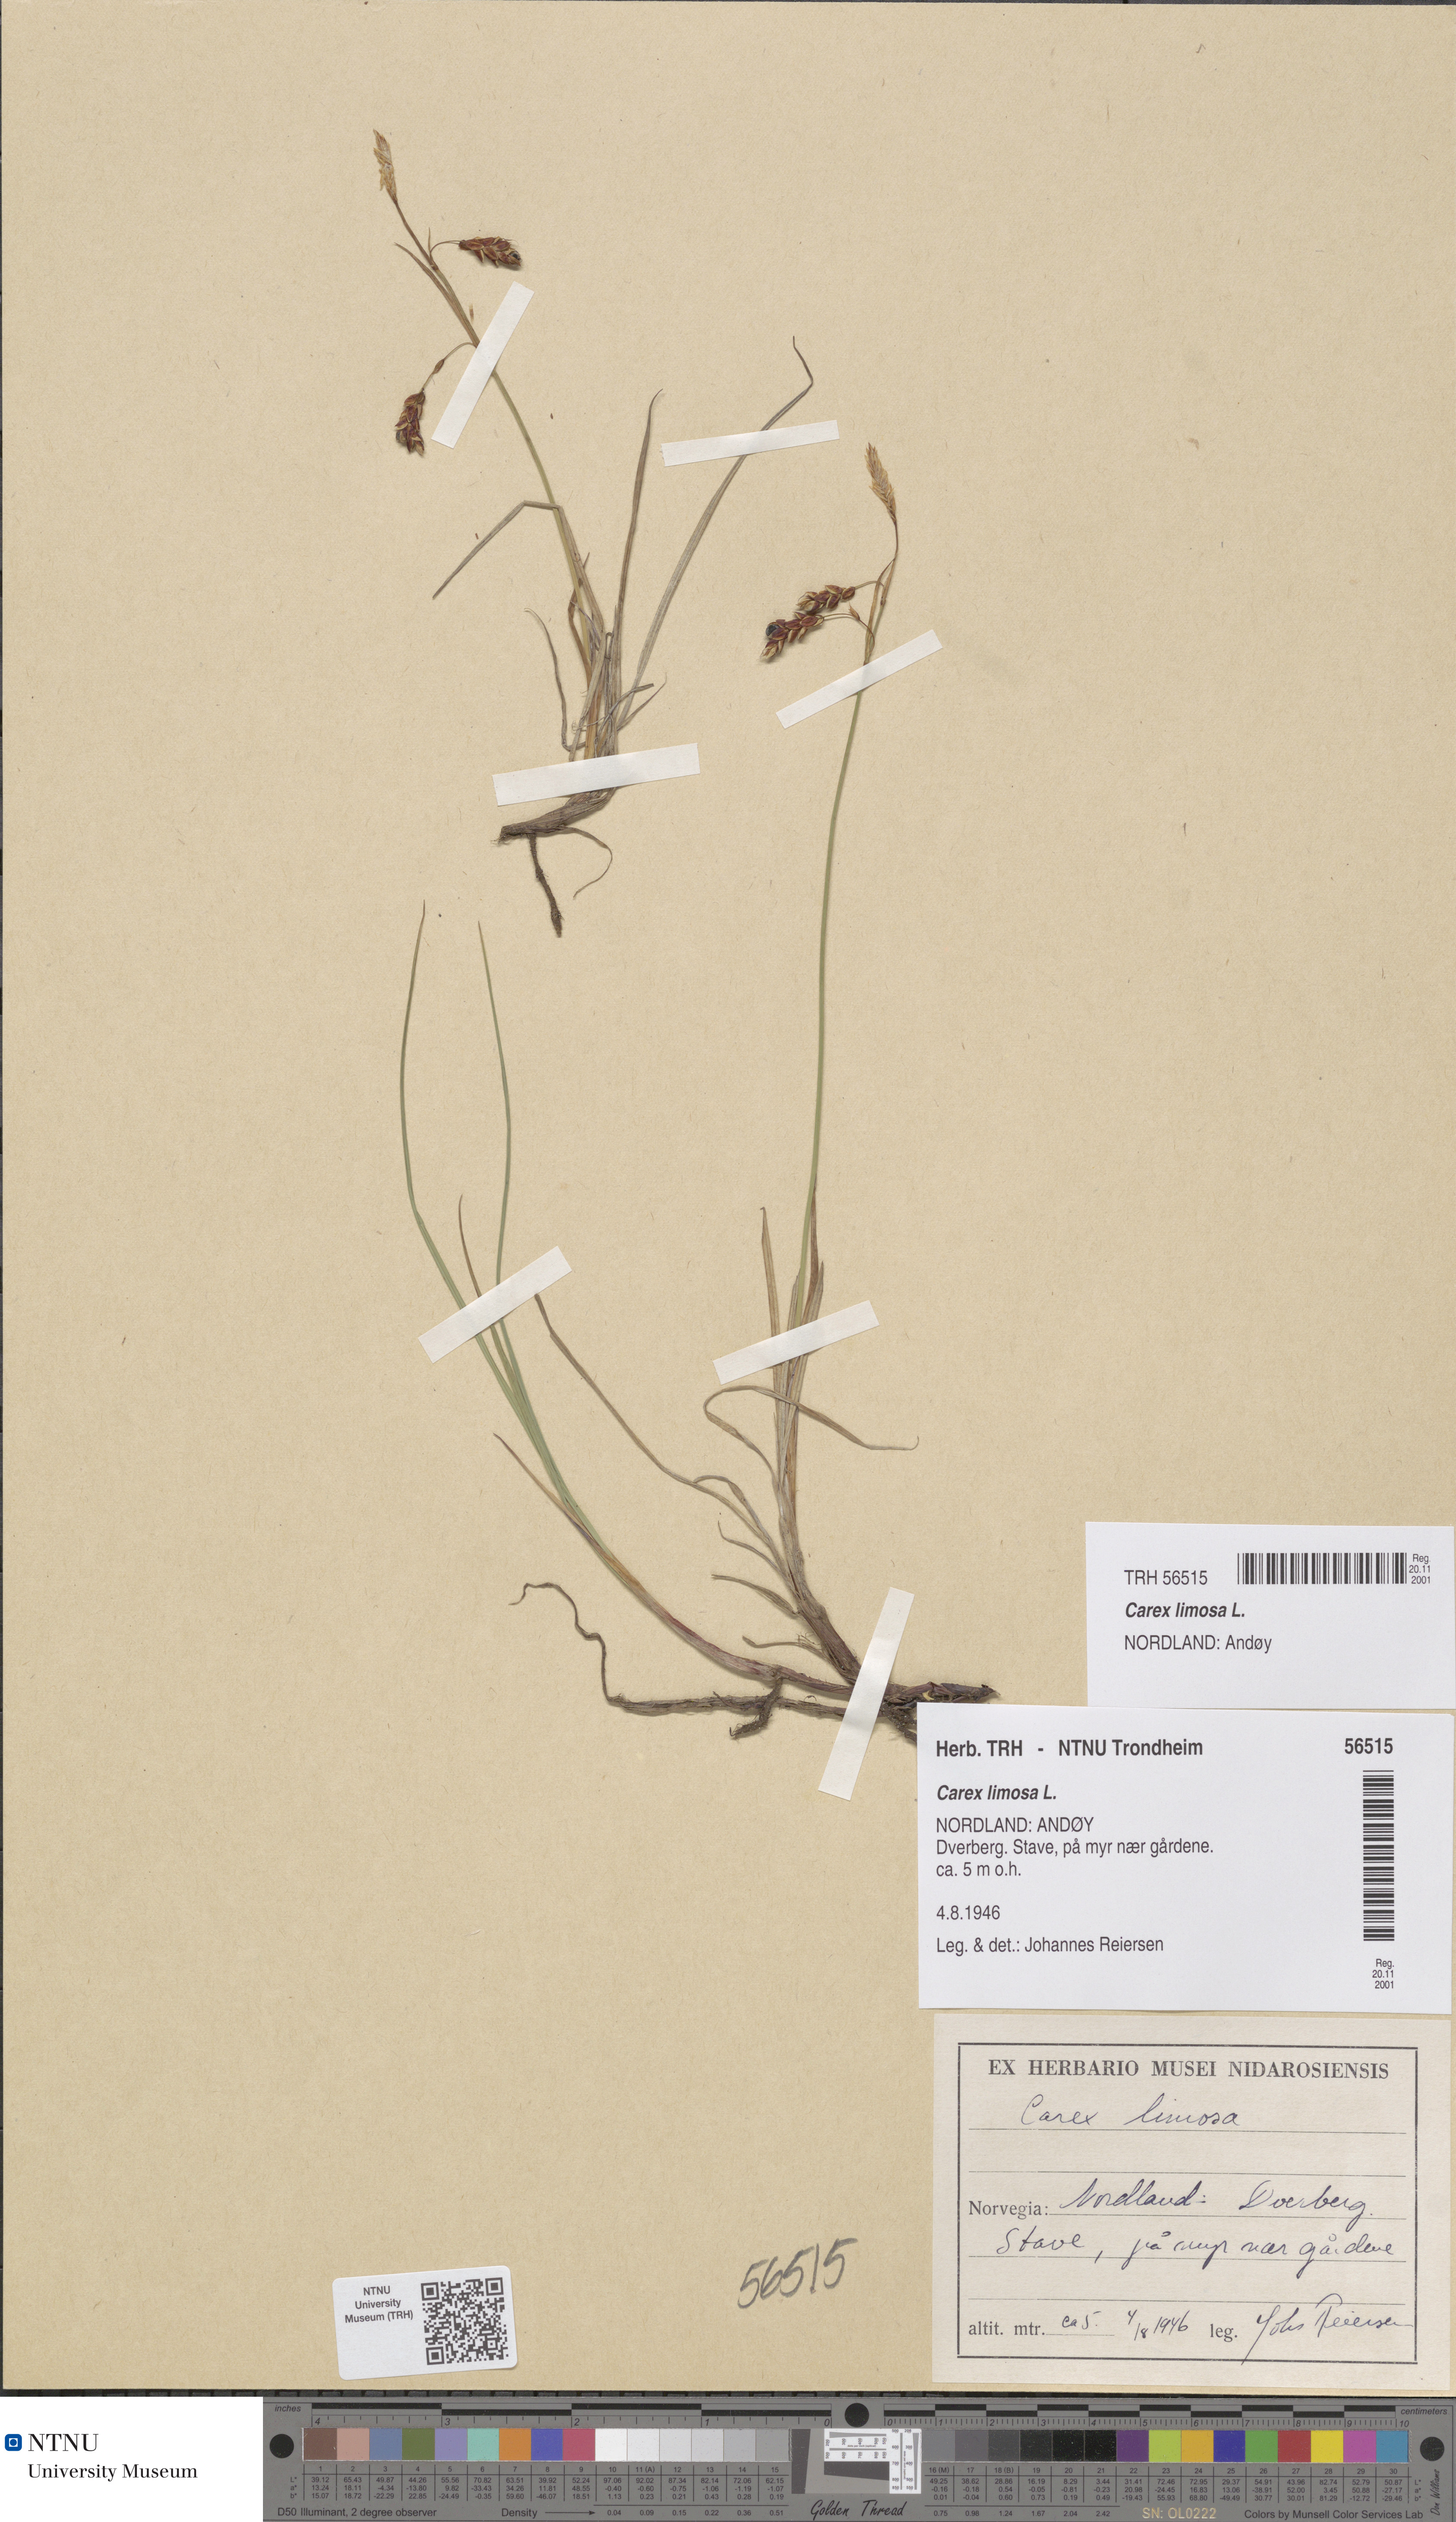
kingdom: Plantae
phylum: Tracheophyta
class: Liliopsida
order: Poales
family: Cyperaceae
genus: Carex
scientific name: Carex limosa
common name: Bog sedge
